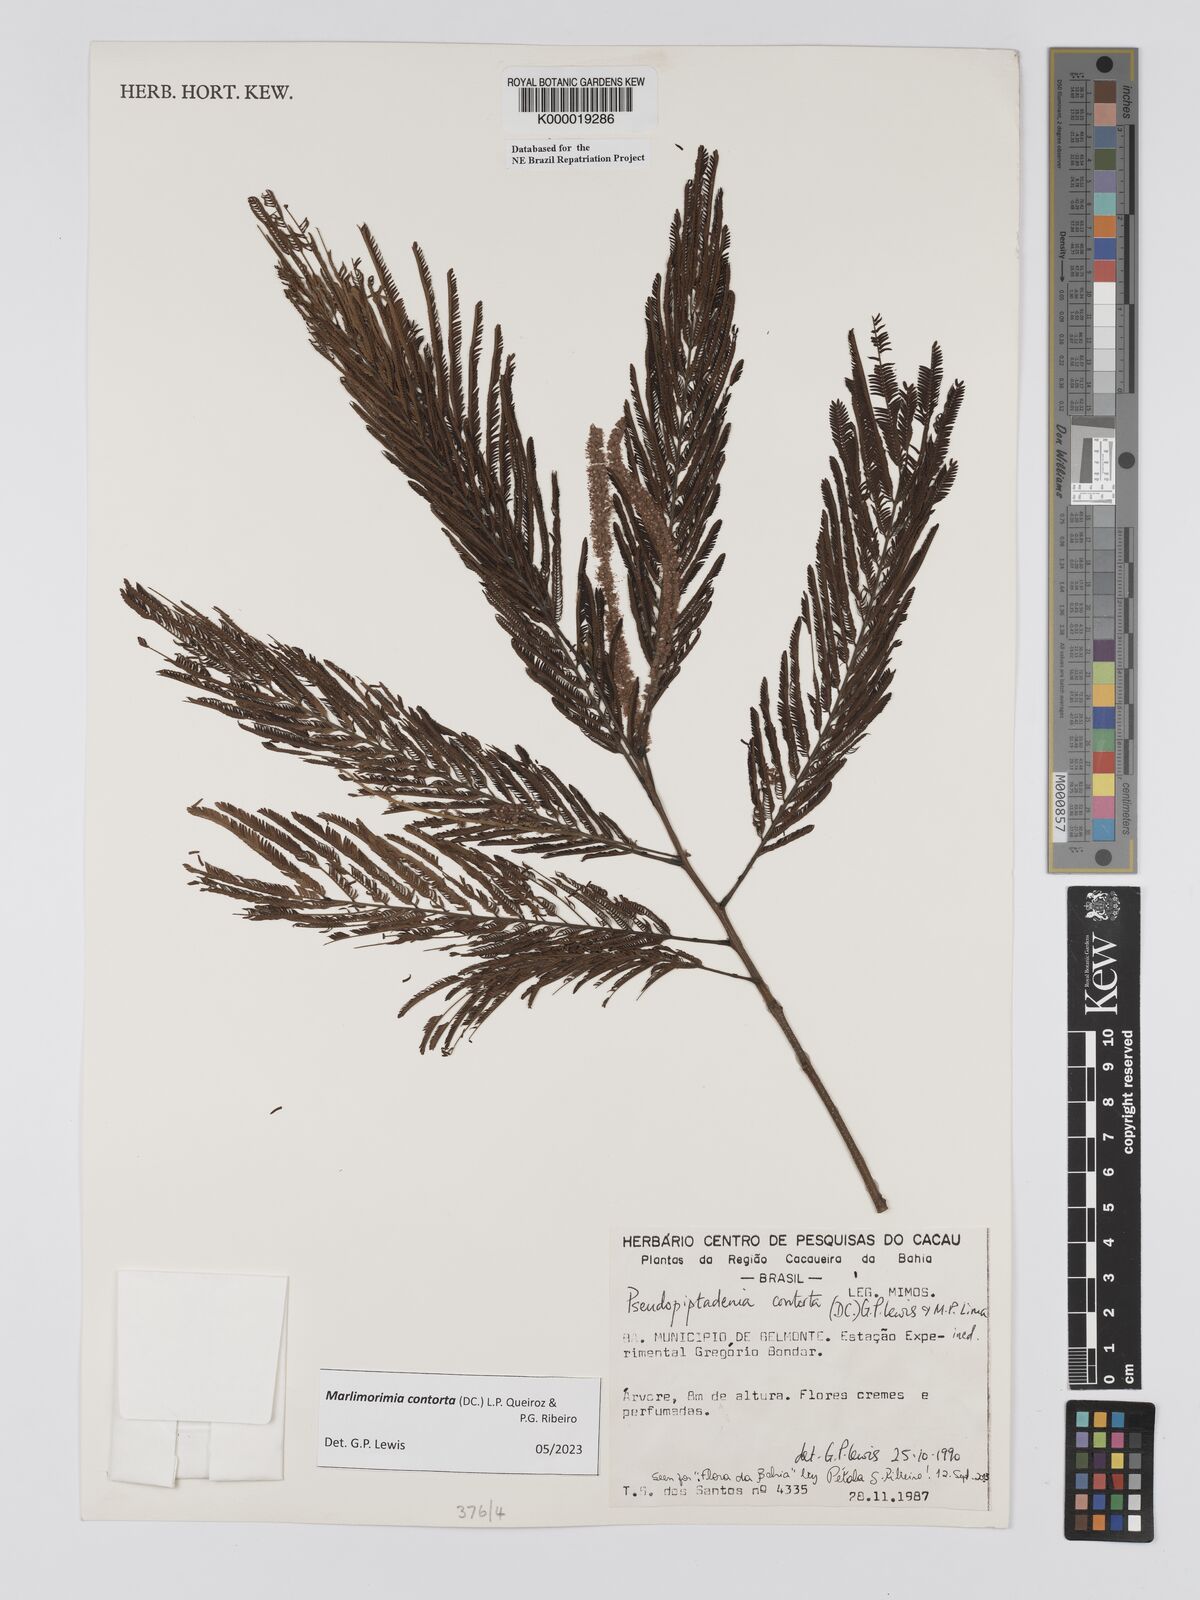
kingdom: Plantae
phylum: Tracheophyta
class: Magnoliopsida
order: Fabales
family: Fabaceae
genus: Pseudopiptadenia
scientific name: Pseudopiptadenia contorta
